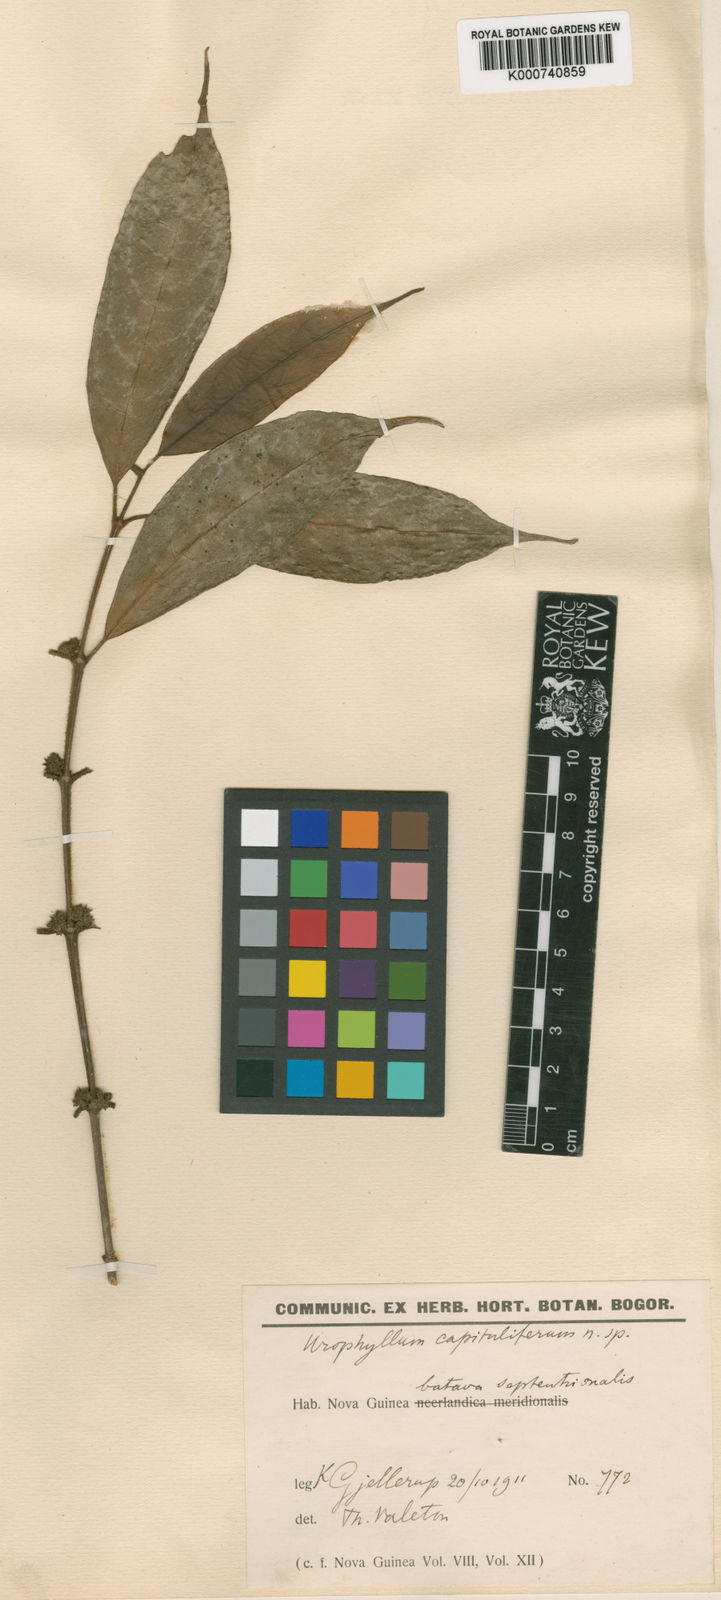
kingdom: Plantae
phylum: Tracheophyta
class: Magnoliopsida
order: Gentianales
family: Rubiaceae
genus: Urophyllum
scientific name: Urophyllum capituligerum
